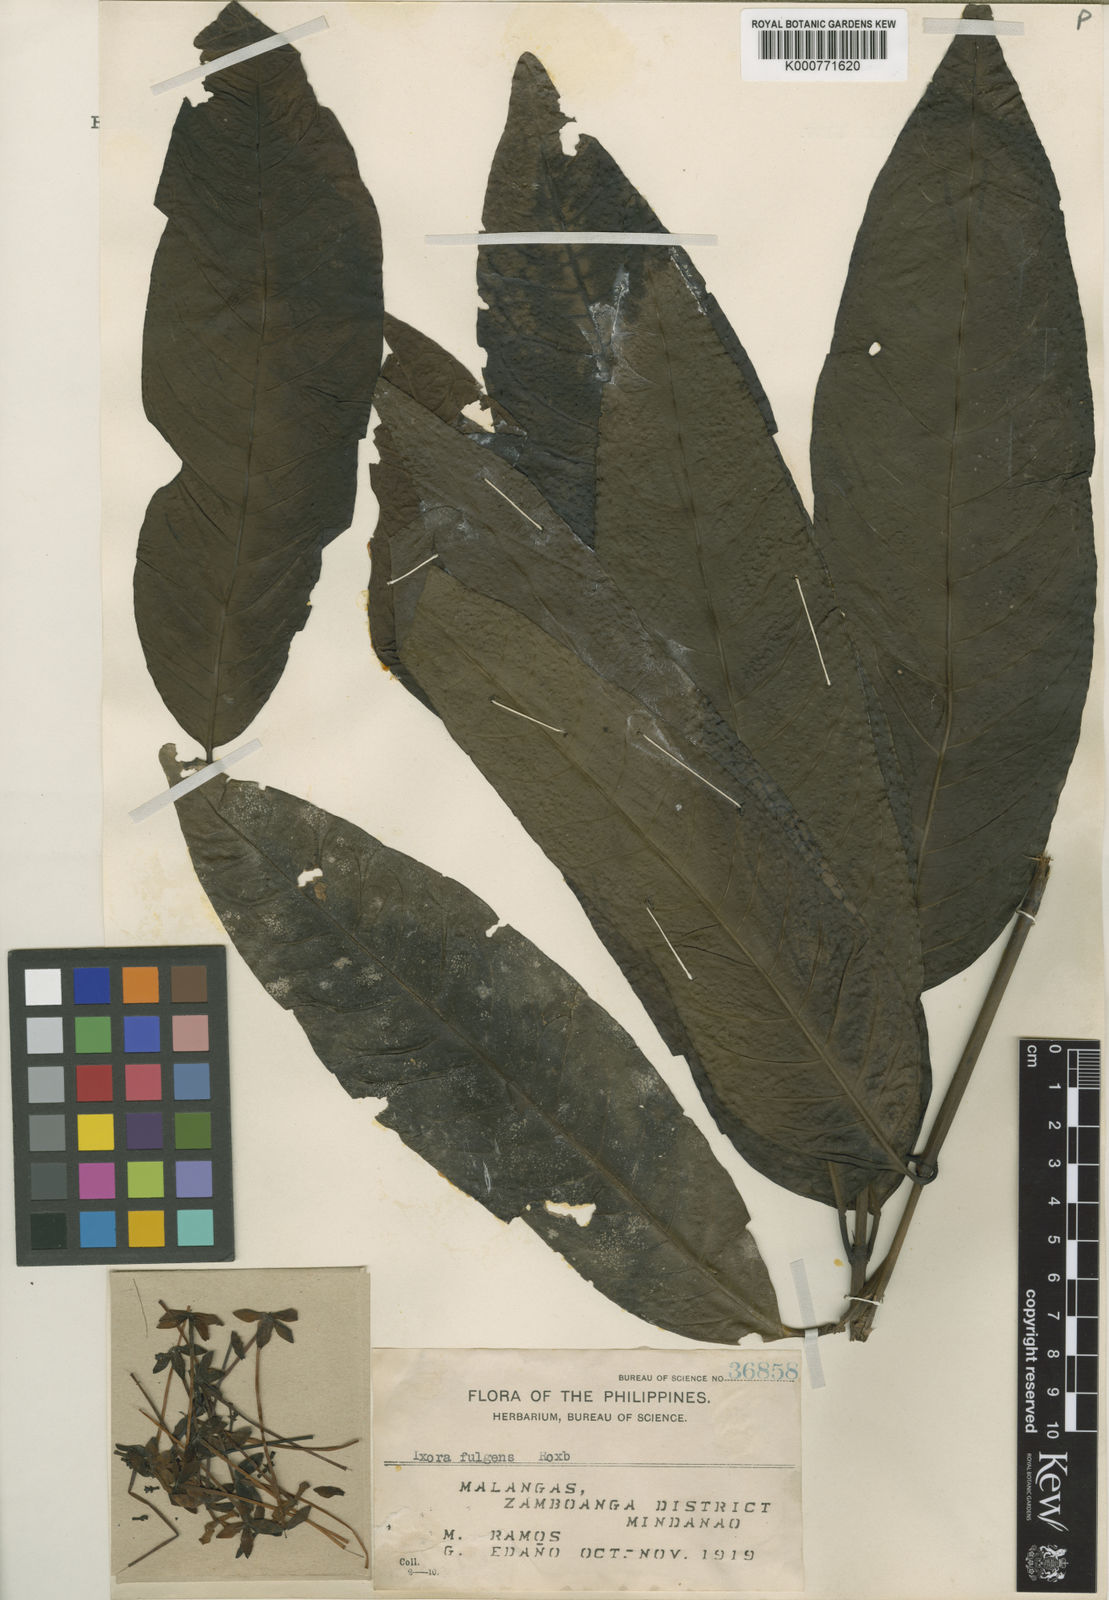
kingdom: Plantae
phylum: Tracheophyta
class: Magnoliopsida
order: Gentianales
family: Rubiaceae
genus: Ixora
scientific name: Ixora longifolia
